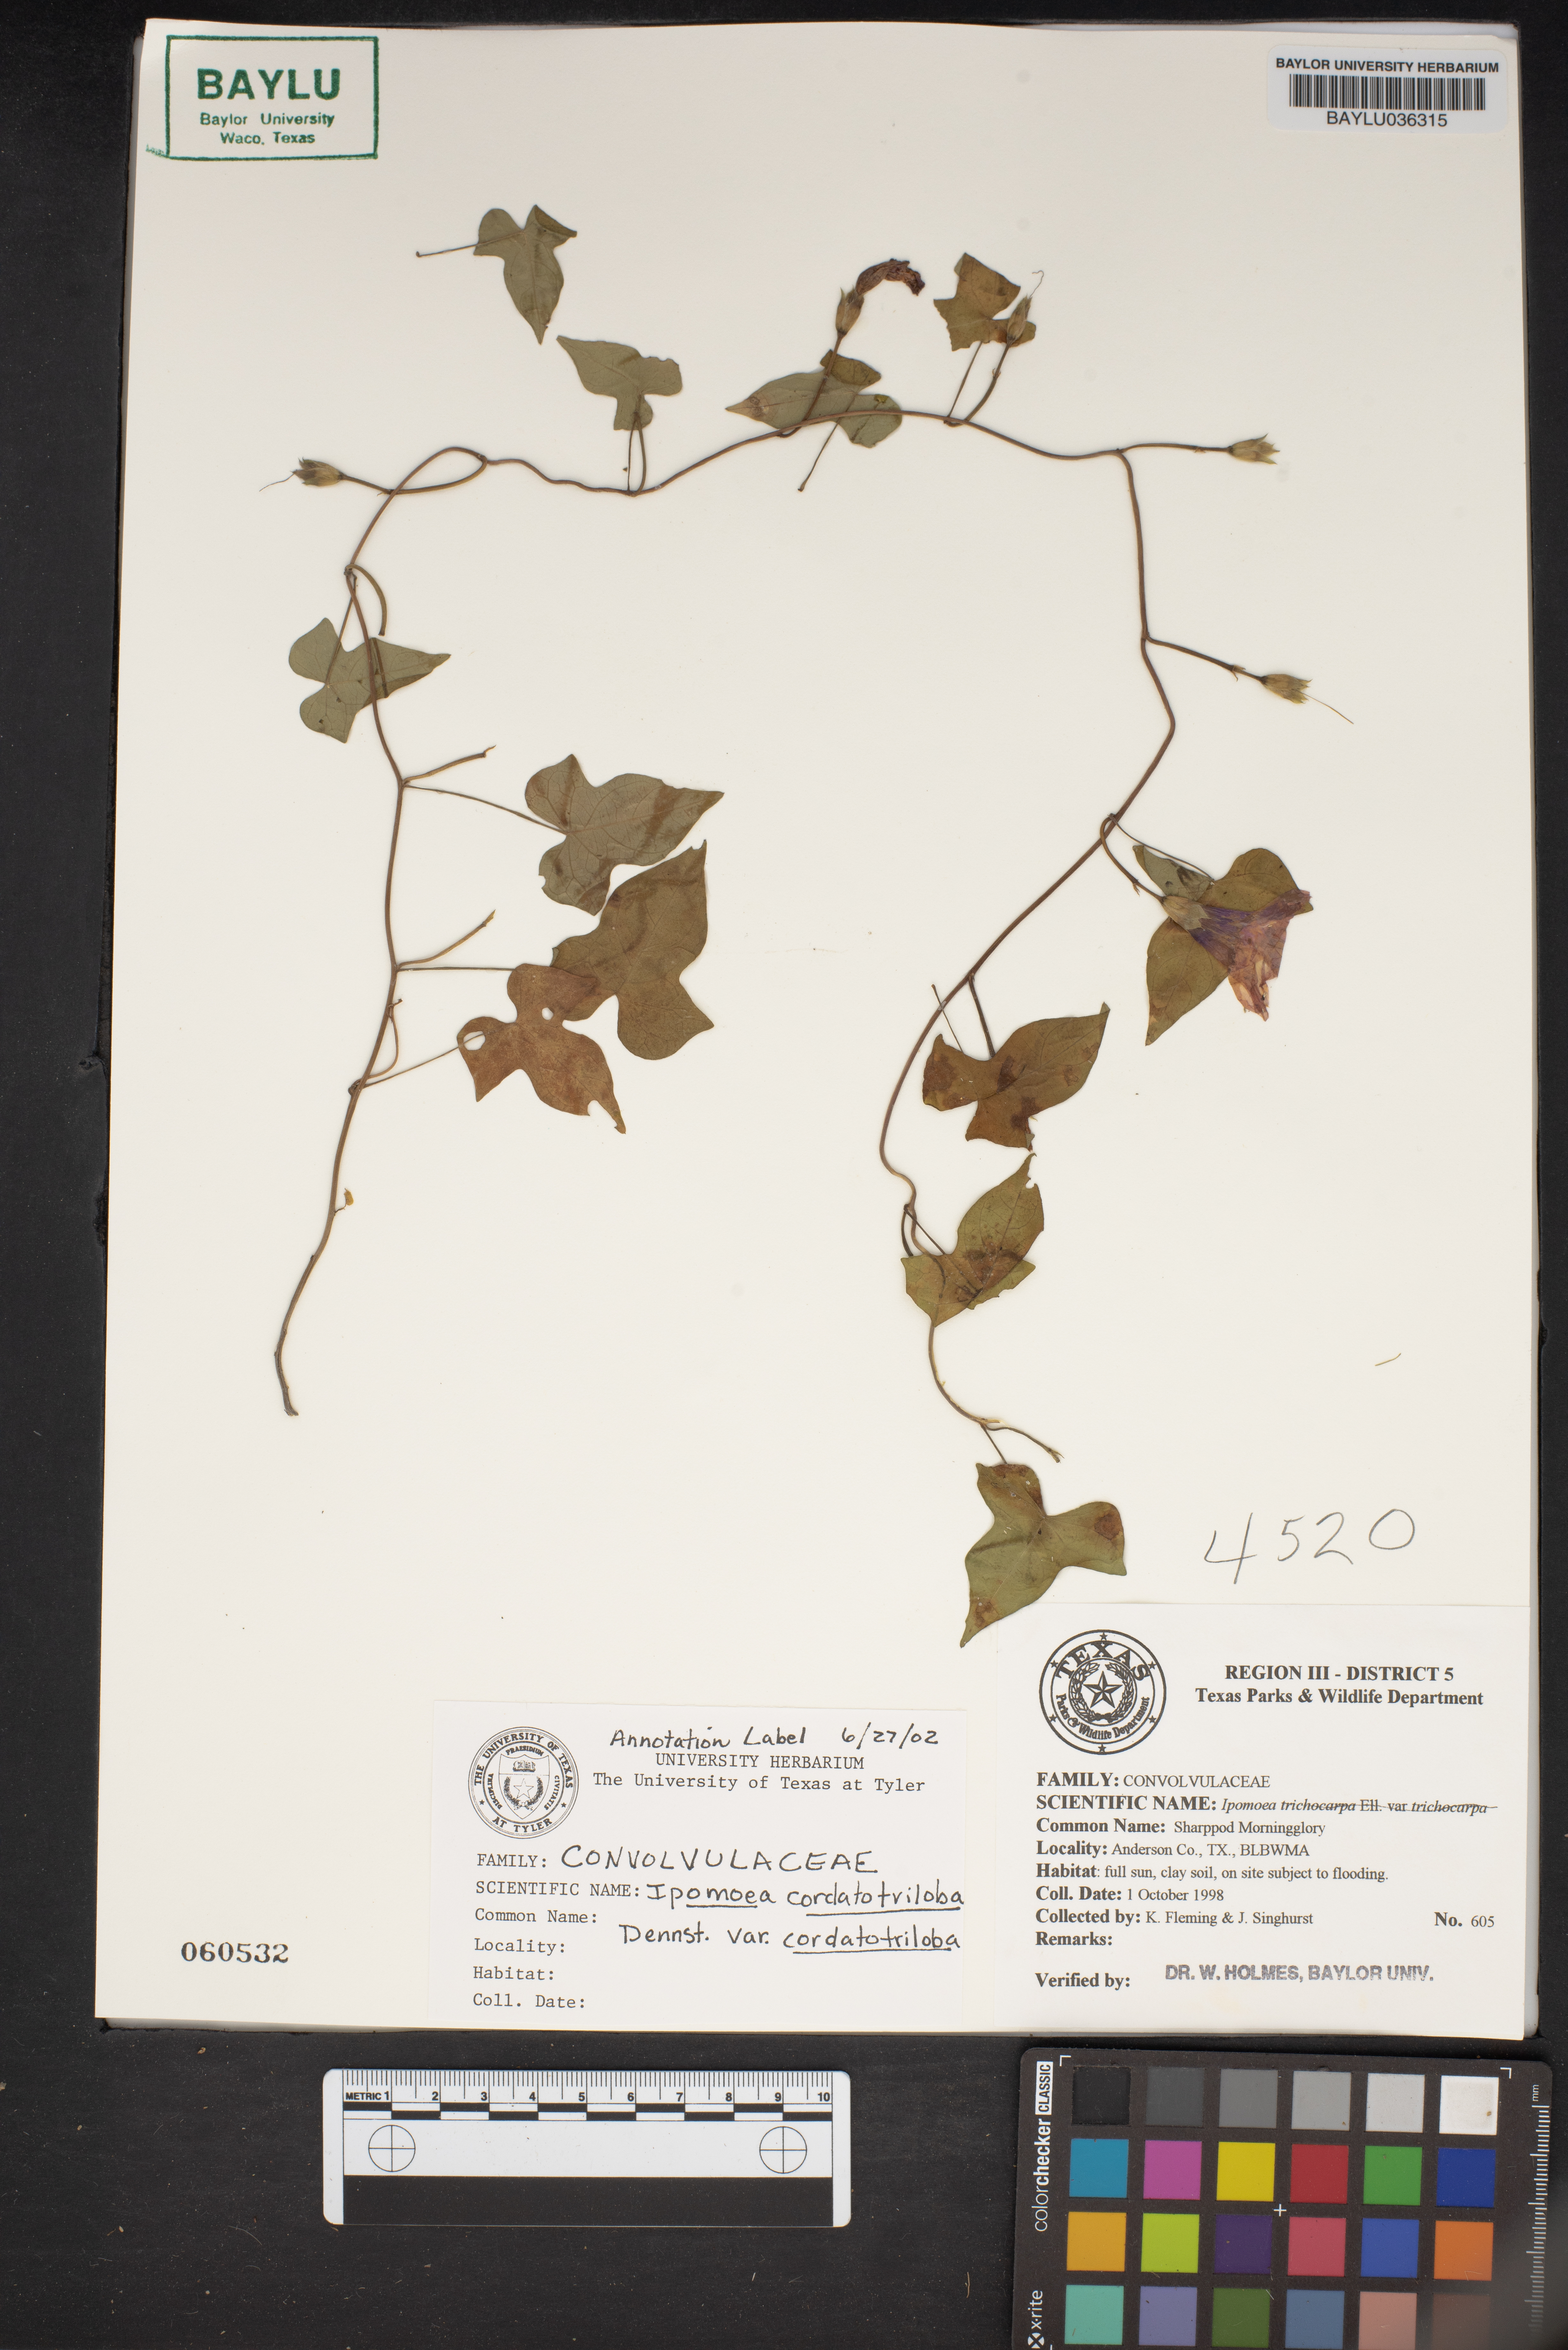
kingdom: Plantae
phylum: Tracheophyta
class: Magnoliopsida
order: Solanales
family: Convolvulaceae
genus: Ipomoea
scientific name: Ipomoea cordatotriloba
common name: Cotton morning glory
